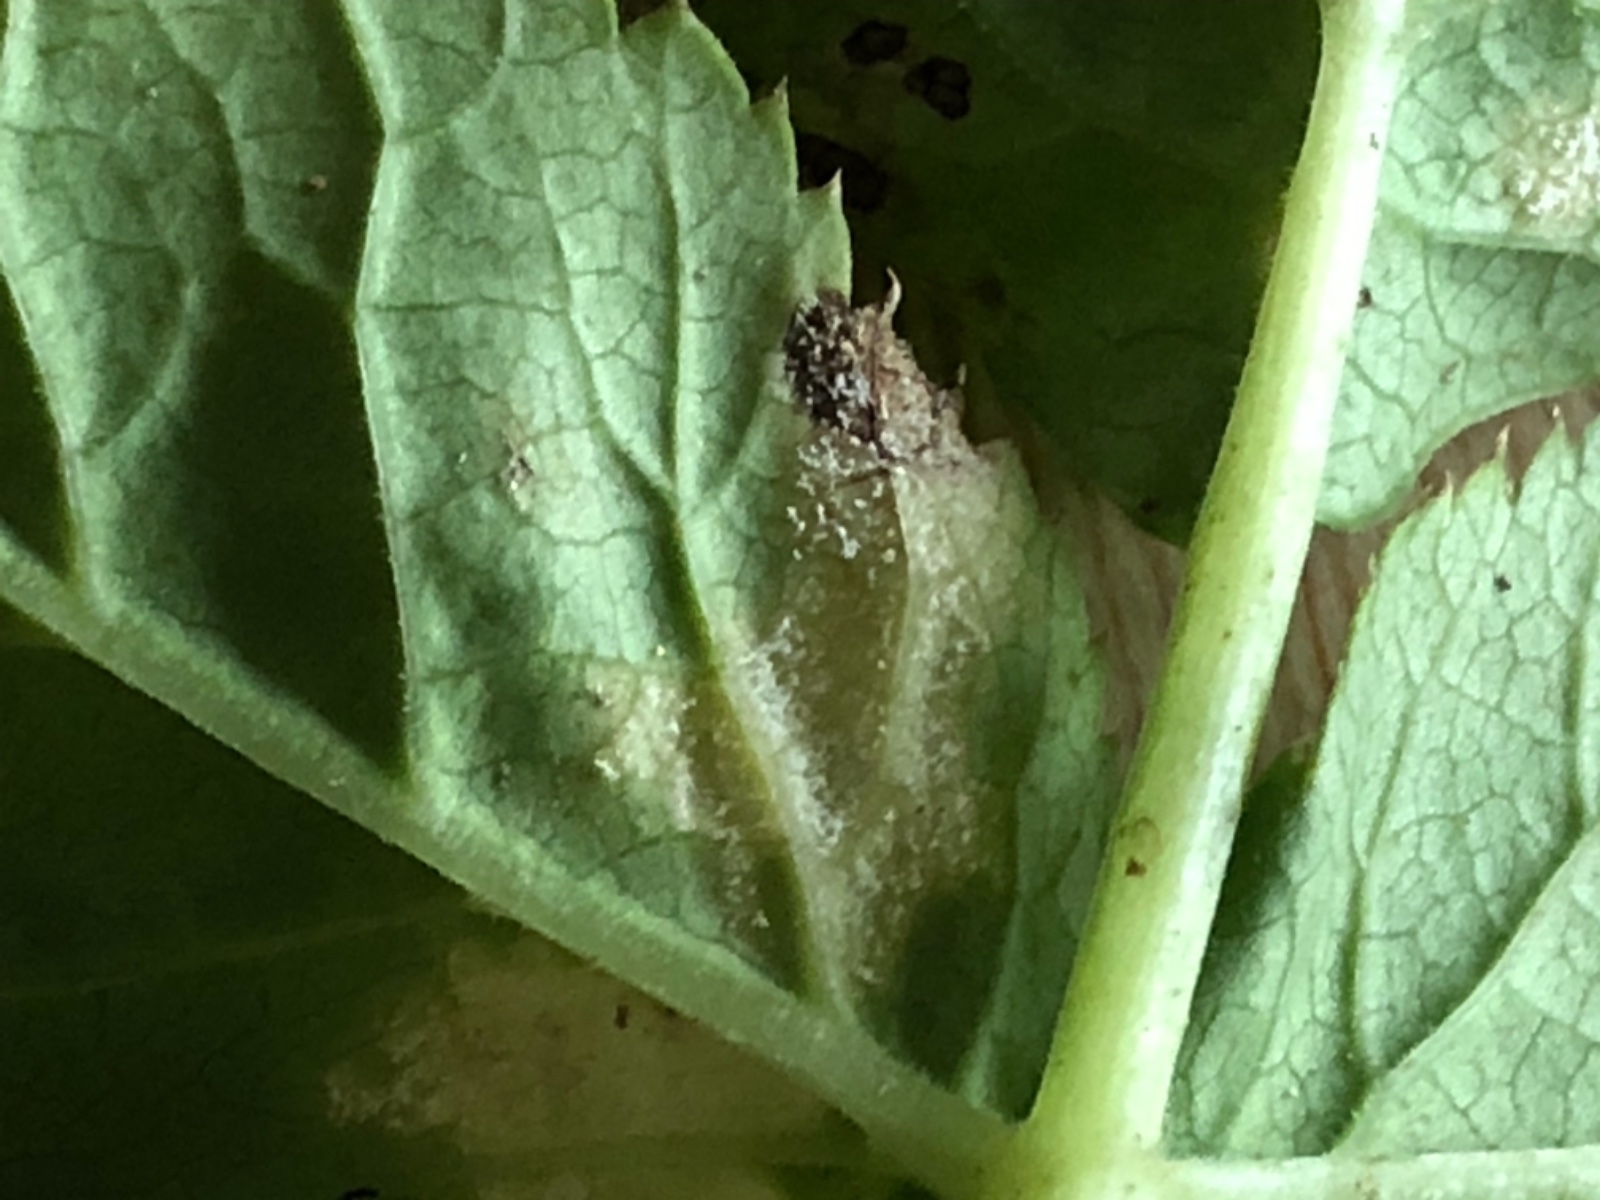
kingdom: Chromista
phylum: Oomycota
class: Peronosporea
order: Peronosporales
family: Peronosporaceae
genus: Peronospora
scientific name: Peronospora crustosa
